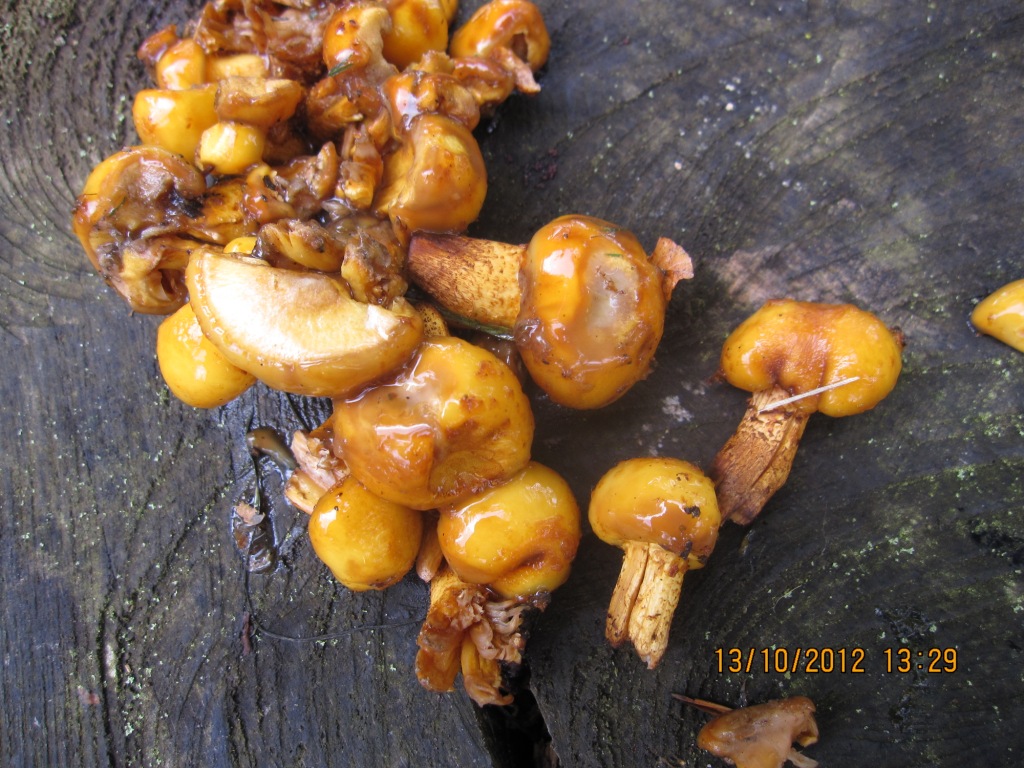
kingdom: Fungi
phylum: Basidiomycota
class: Agaricomycetes
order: Agaricales
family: Strophariaceae
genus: Pholiota
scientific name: Pholiota adiposa
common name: højtsiddende skælhat
